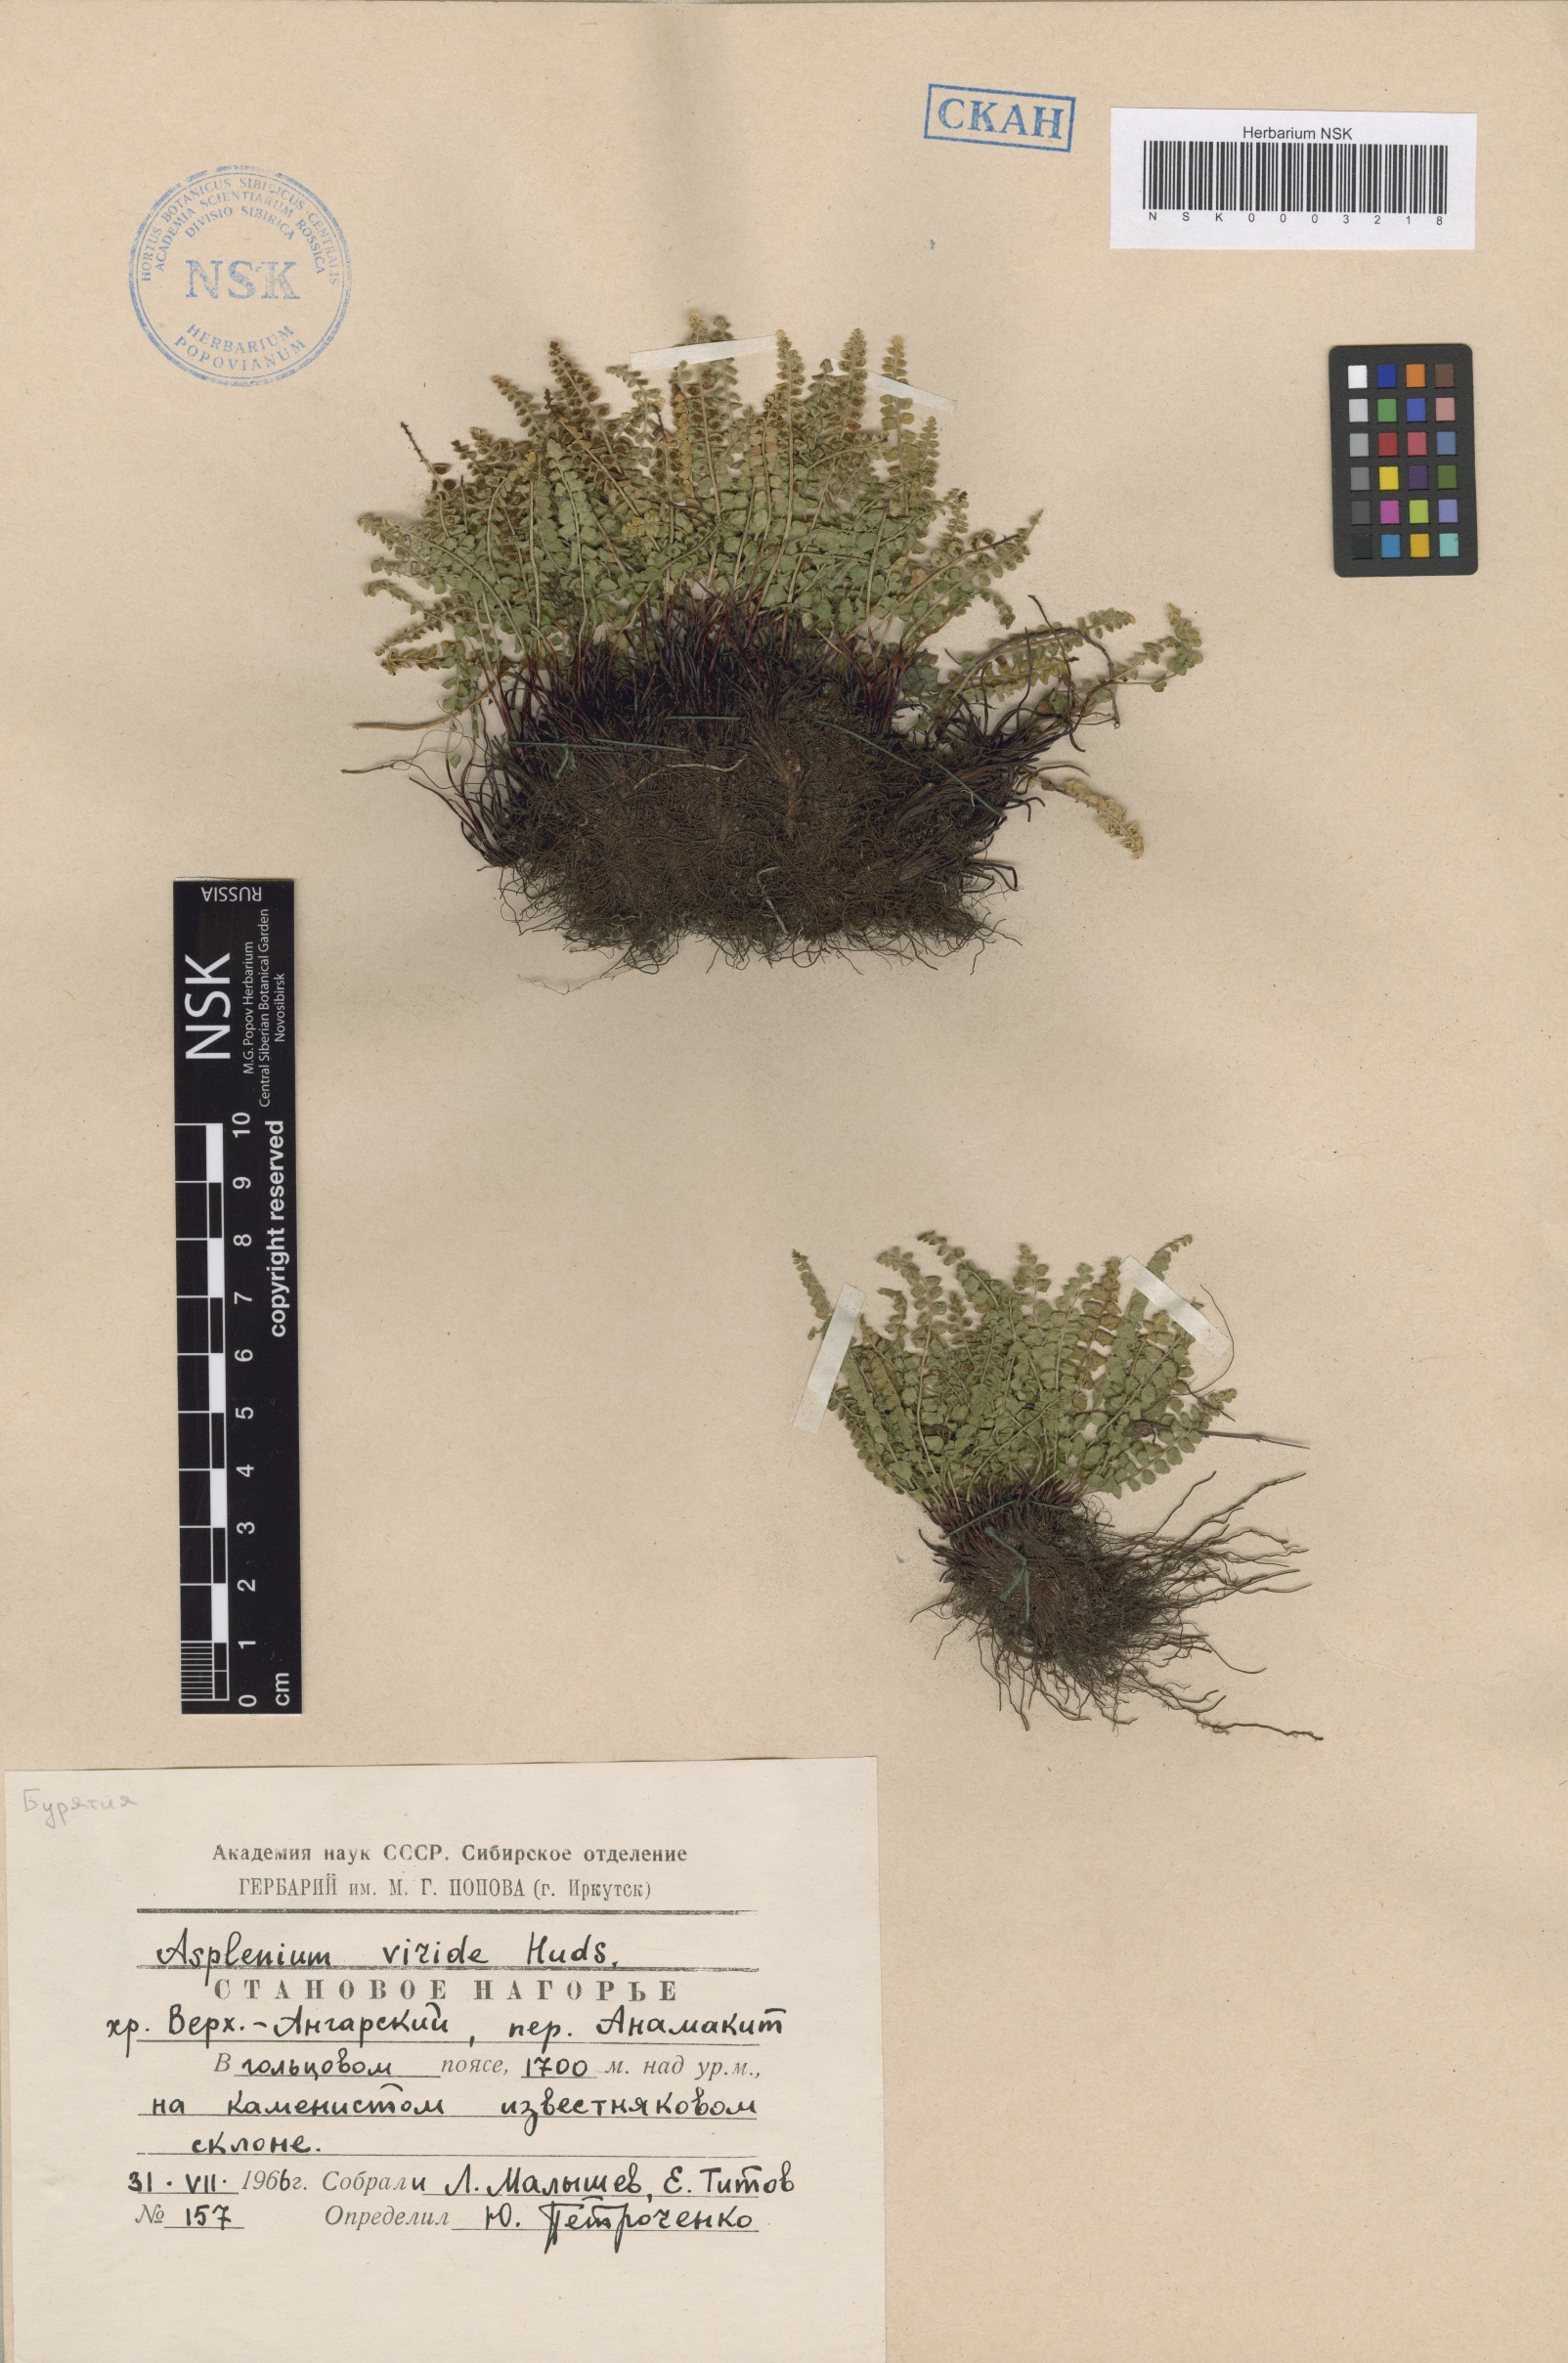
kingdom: Plantae
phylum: Tracheophyta
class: Polypodiopsida
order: Polypodiales
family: Aspleniaceae
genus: Asplenium
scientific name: Asplenium viride
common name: Green spleenwort
